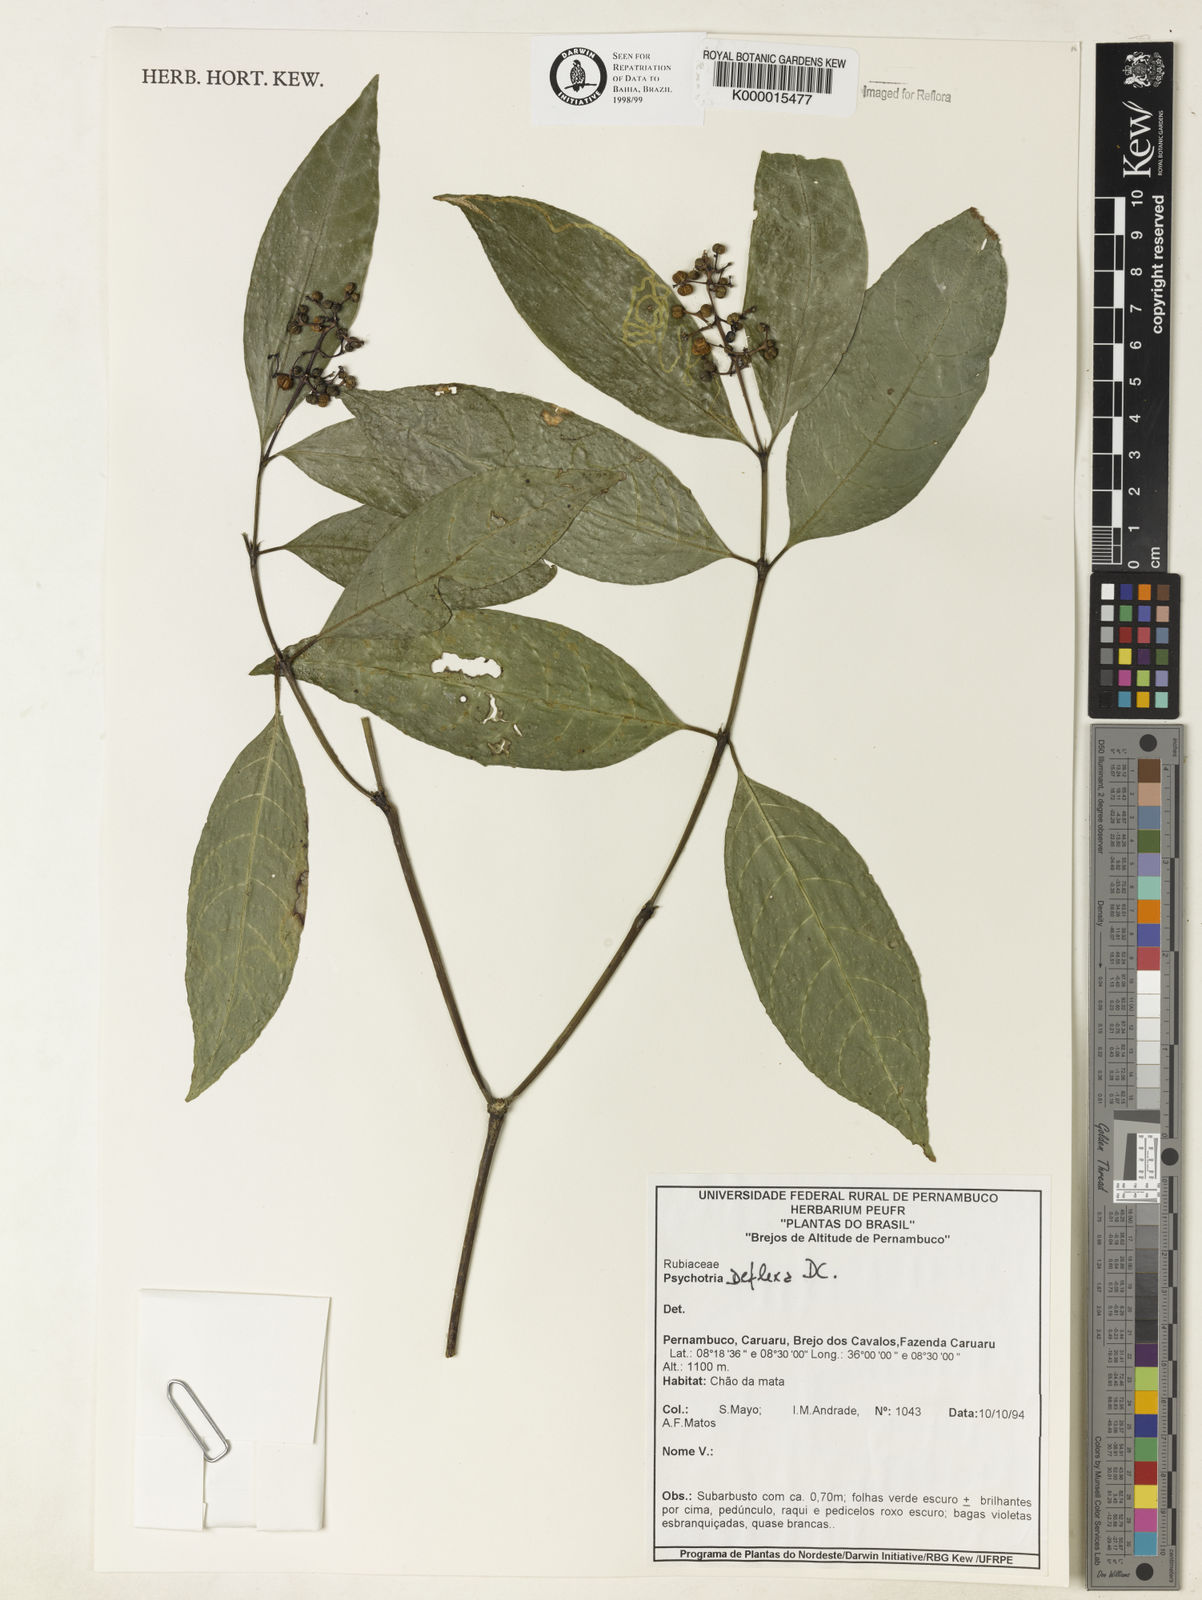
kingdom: Plantae
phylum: Tracheophyta
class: Magnoliopsida
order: Gentianales
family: Rubiaceae
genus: Palicourea
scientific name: Palicourea deflexa
